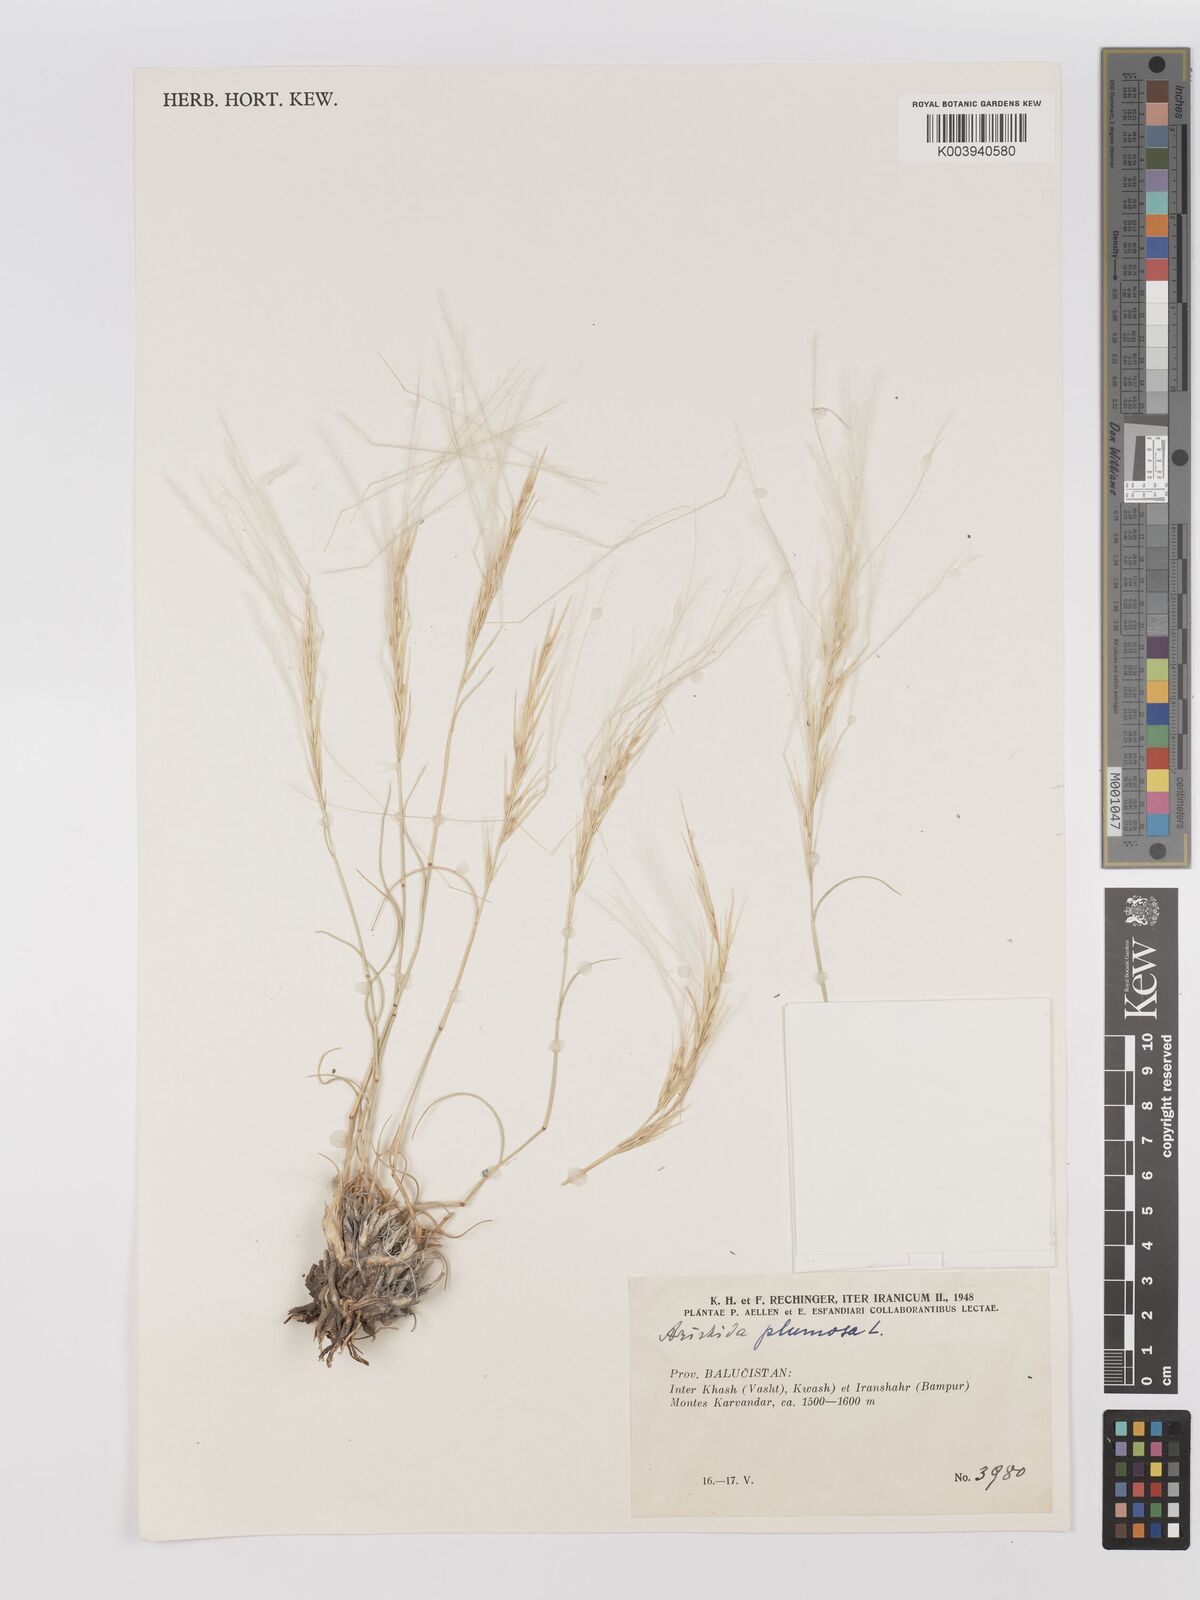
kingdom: Plantae
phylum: Tracheophyta
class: Liliopsida
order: Poales
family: Poaceae
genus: Stipagrostis
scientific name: Stipagrostis plumosa
